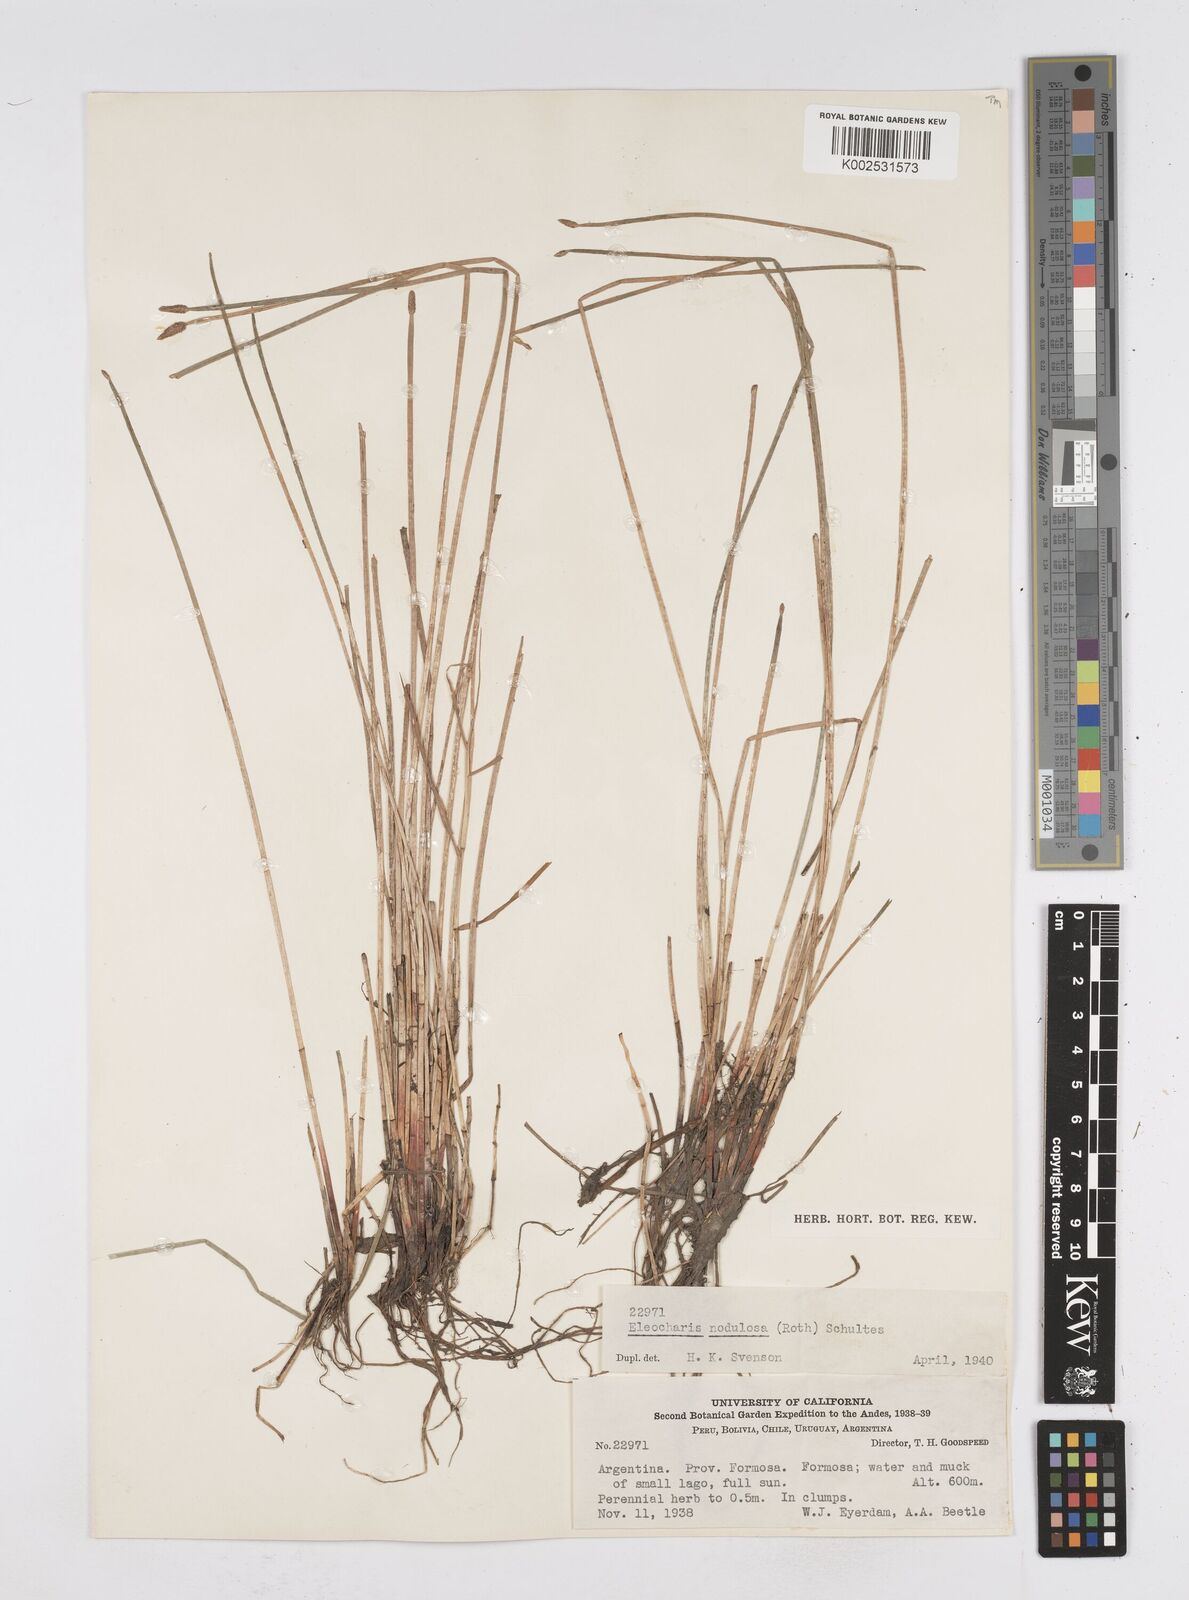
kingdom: Plantae
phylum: Tracheophyta
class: Liliopsida
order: Poales
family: Cyperaceae
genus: Eleocharis
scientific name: Eleocharis montana
